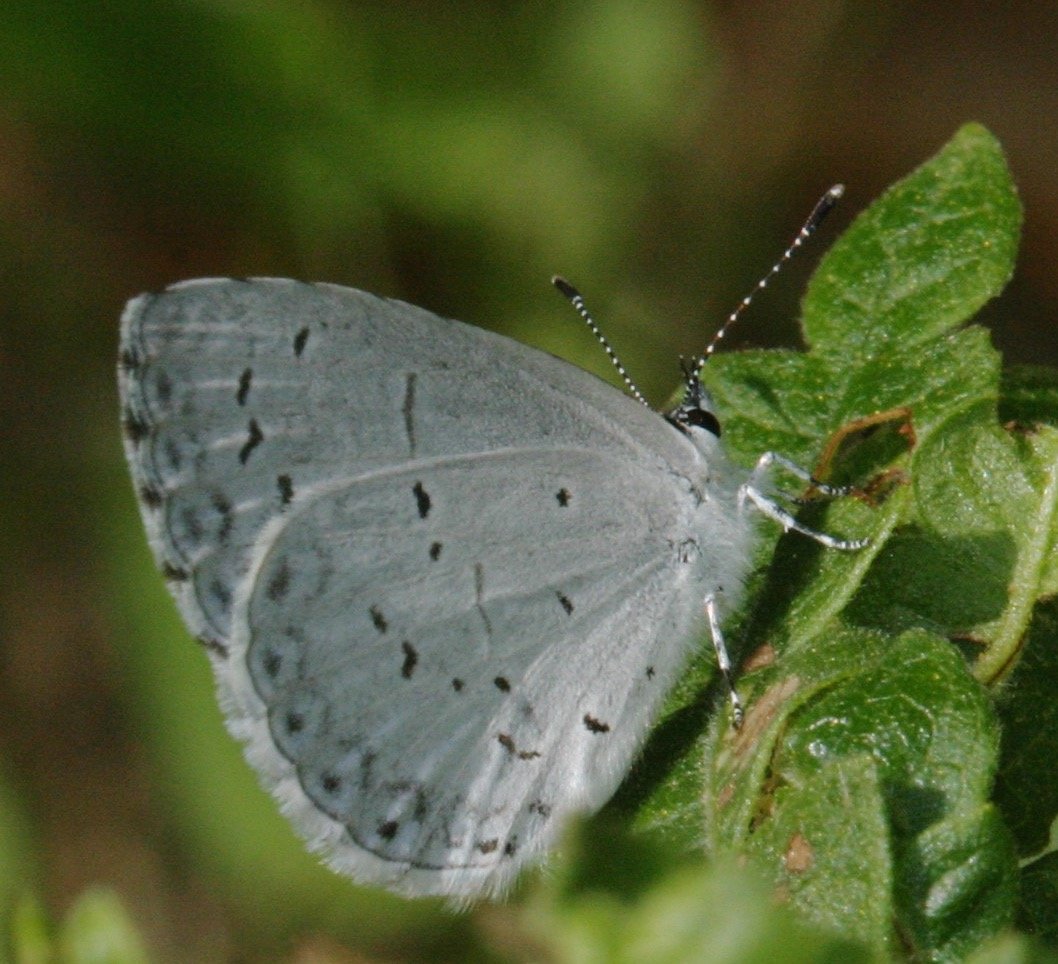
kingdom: Animalia
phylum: Arthropoda
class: Insecta
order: Lepidoptera
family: Lycaenidae
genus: Cyaniris
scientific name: Cyaniris neglecta
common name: Summer Azure
